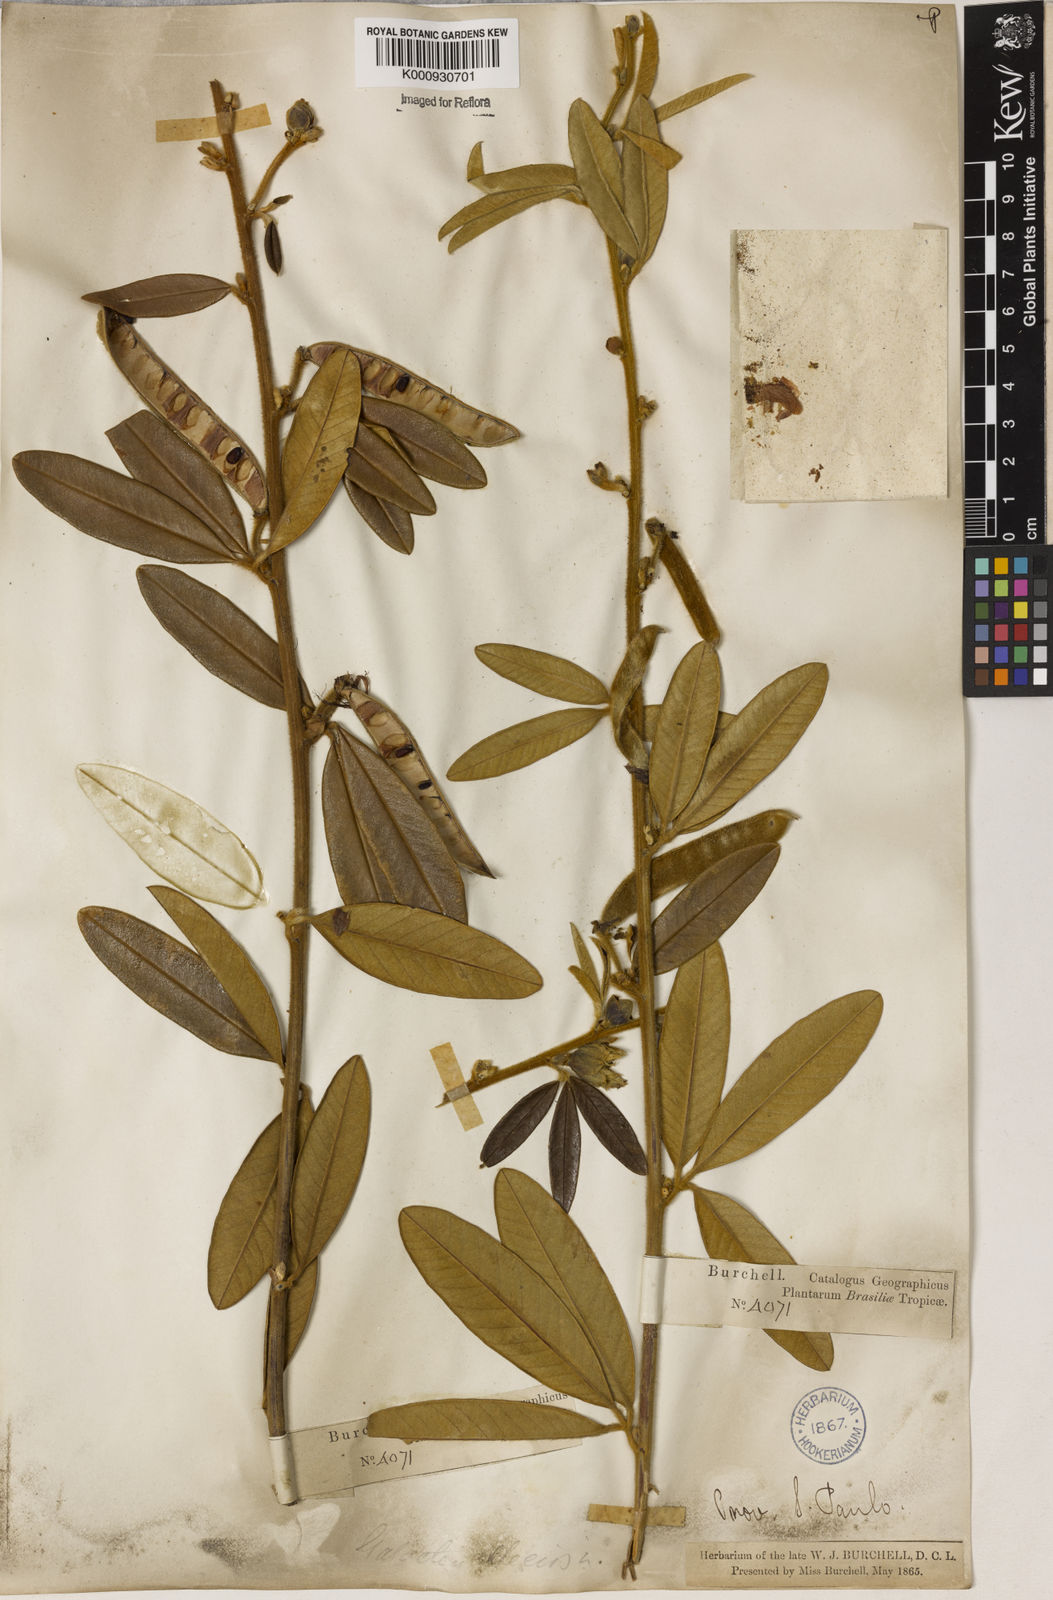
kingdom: Plantae
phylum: Tracheophyta
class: Magnoliopsida
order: Lamiales
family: Lamiaceae
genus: Coleus
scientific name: Coleus barbatus
